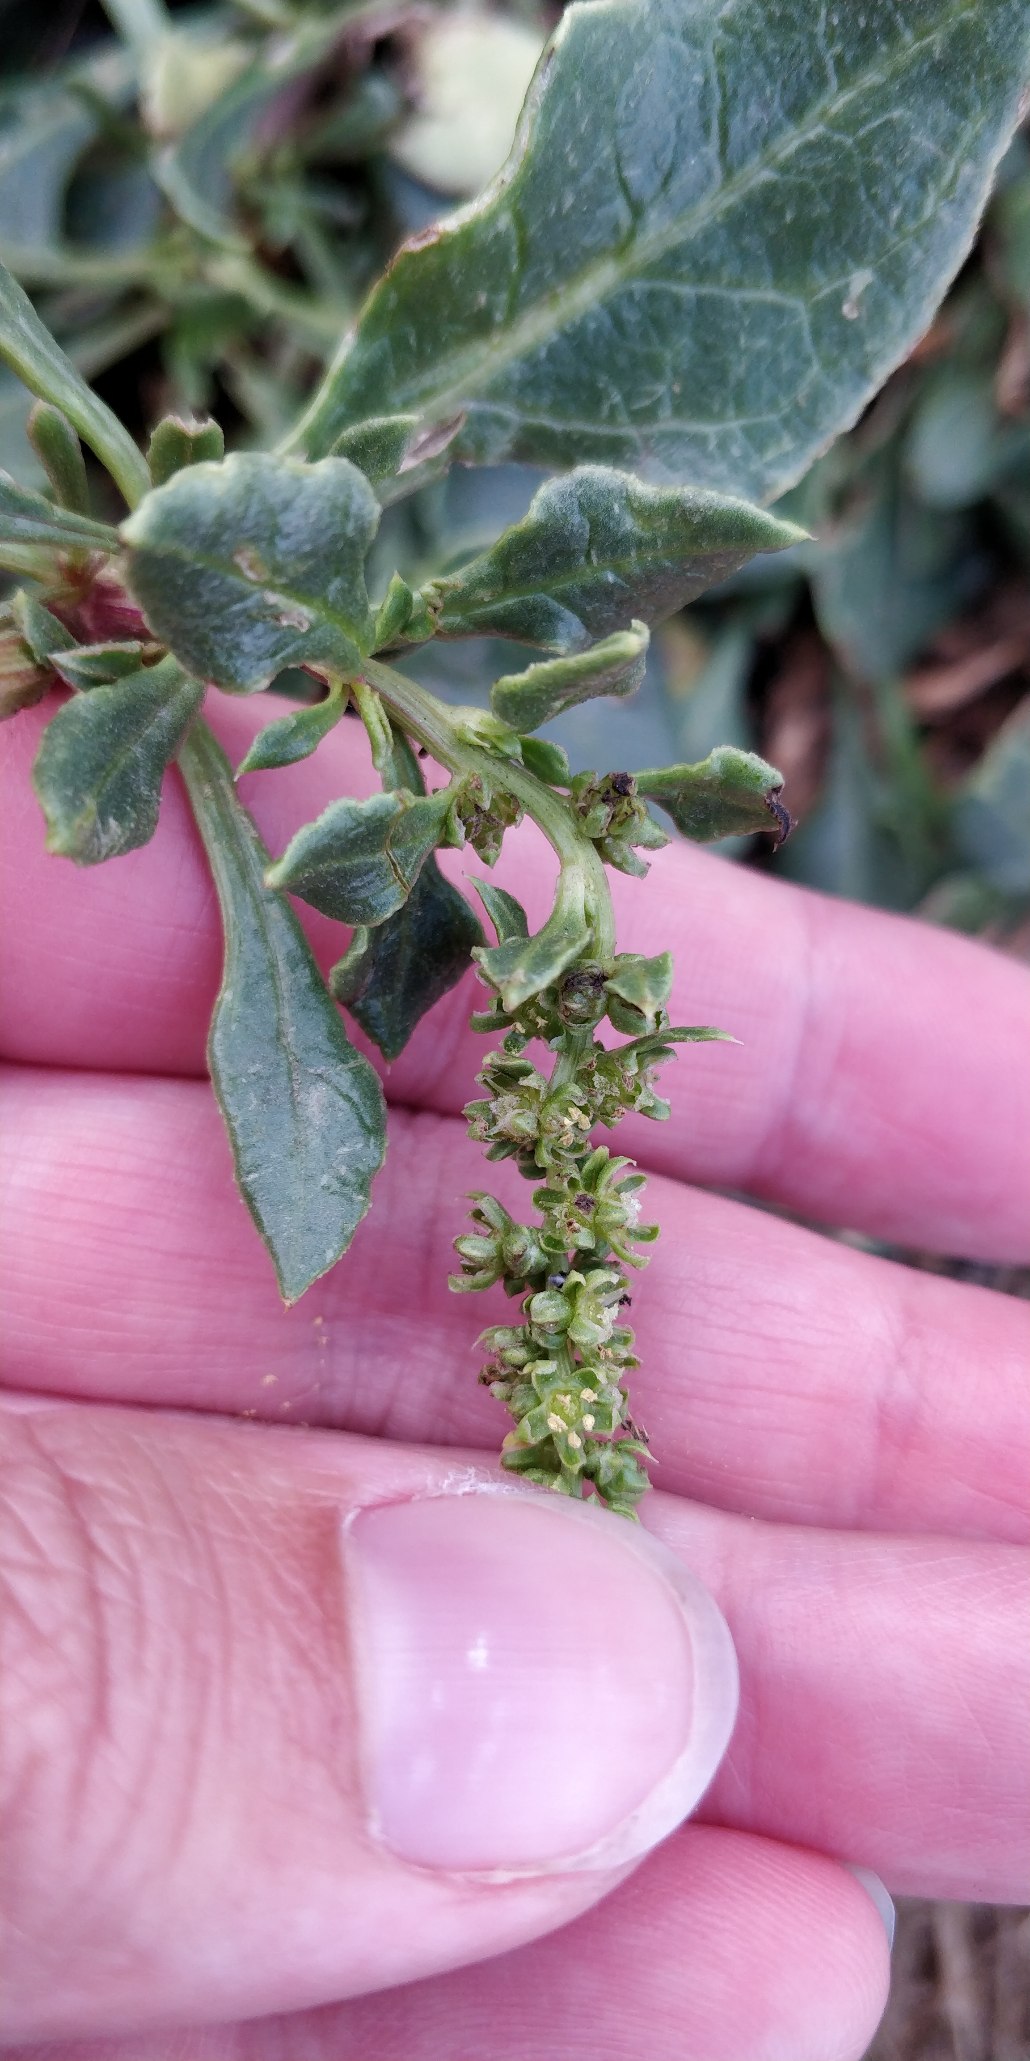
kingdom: Plantae
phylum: Tracheophyta
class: Magnoliopsida
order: Caryophyllales
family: Amaranthaceae
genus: Beta
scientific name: Beta maritima
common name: Strand-bede
